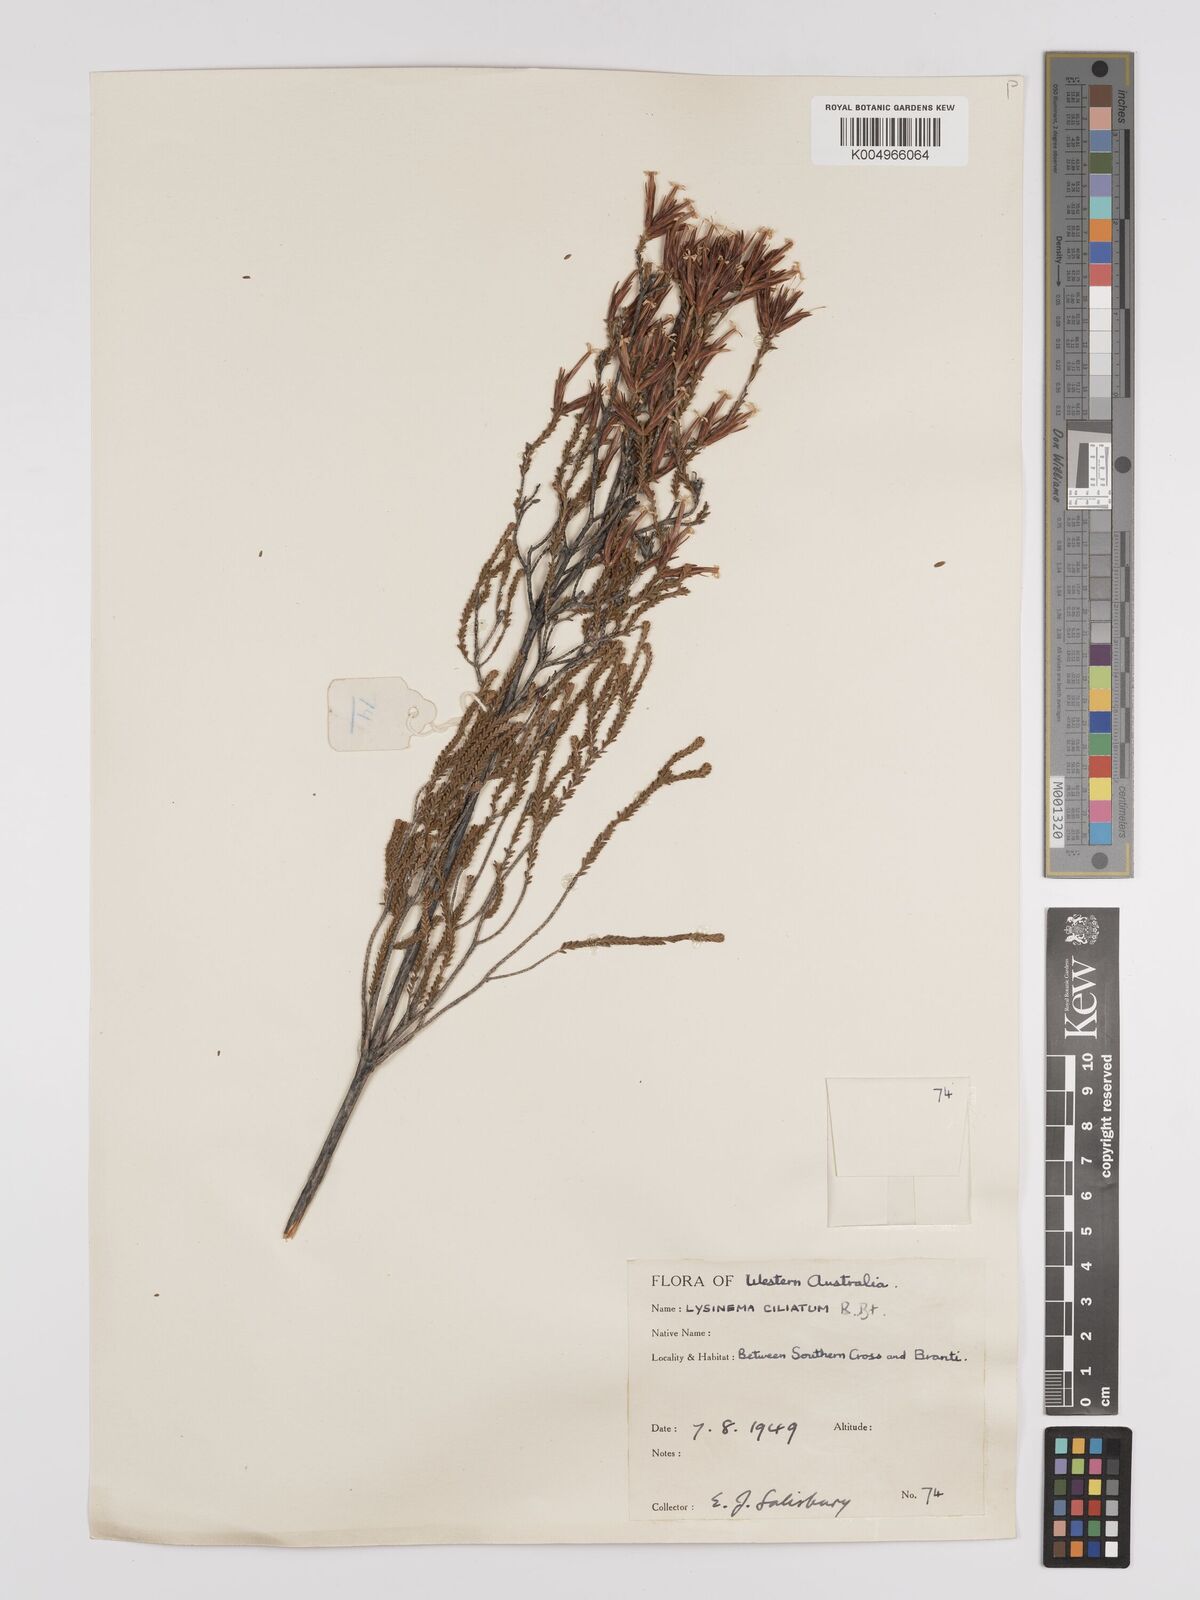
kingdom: Plantae
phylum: Tracheophyta
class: Magnoliopsida
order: Ericales
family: Ericaceae
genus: Lysinema
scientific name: Lysinema ciliatum
